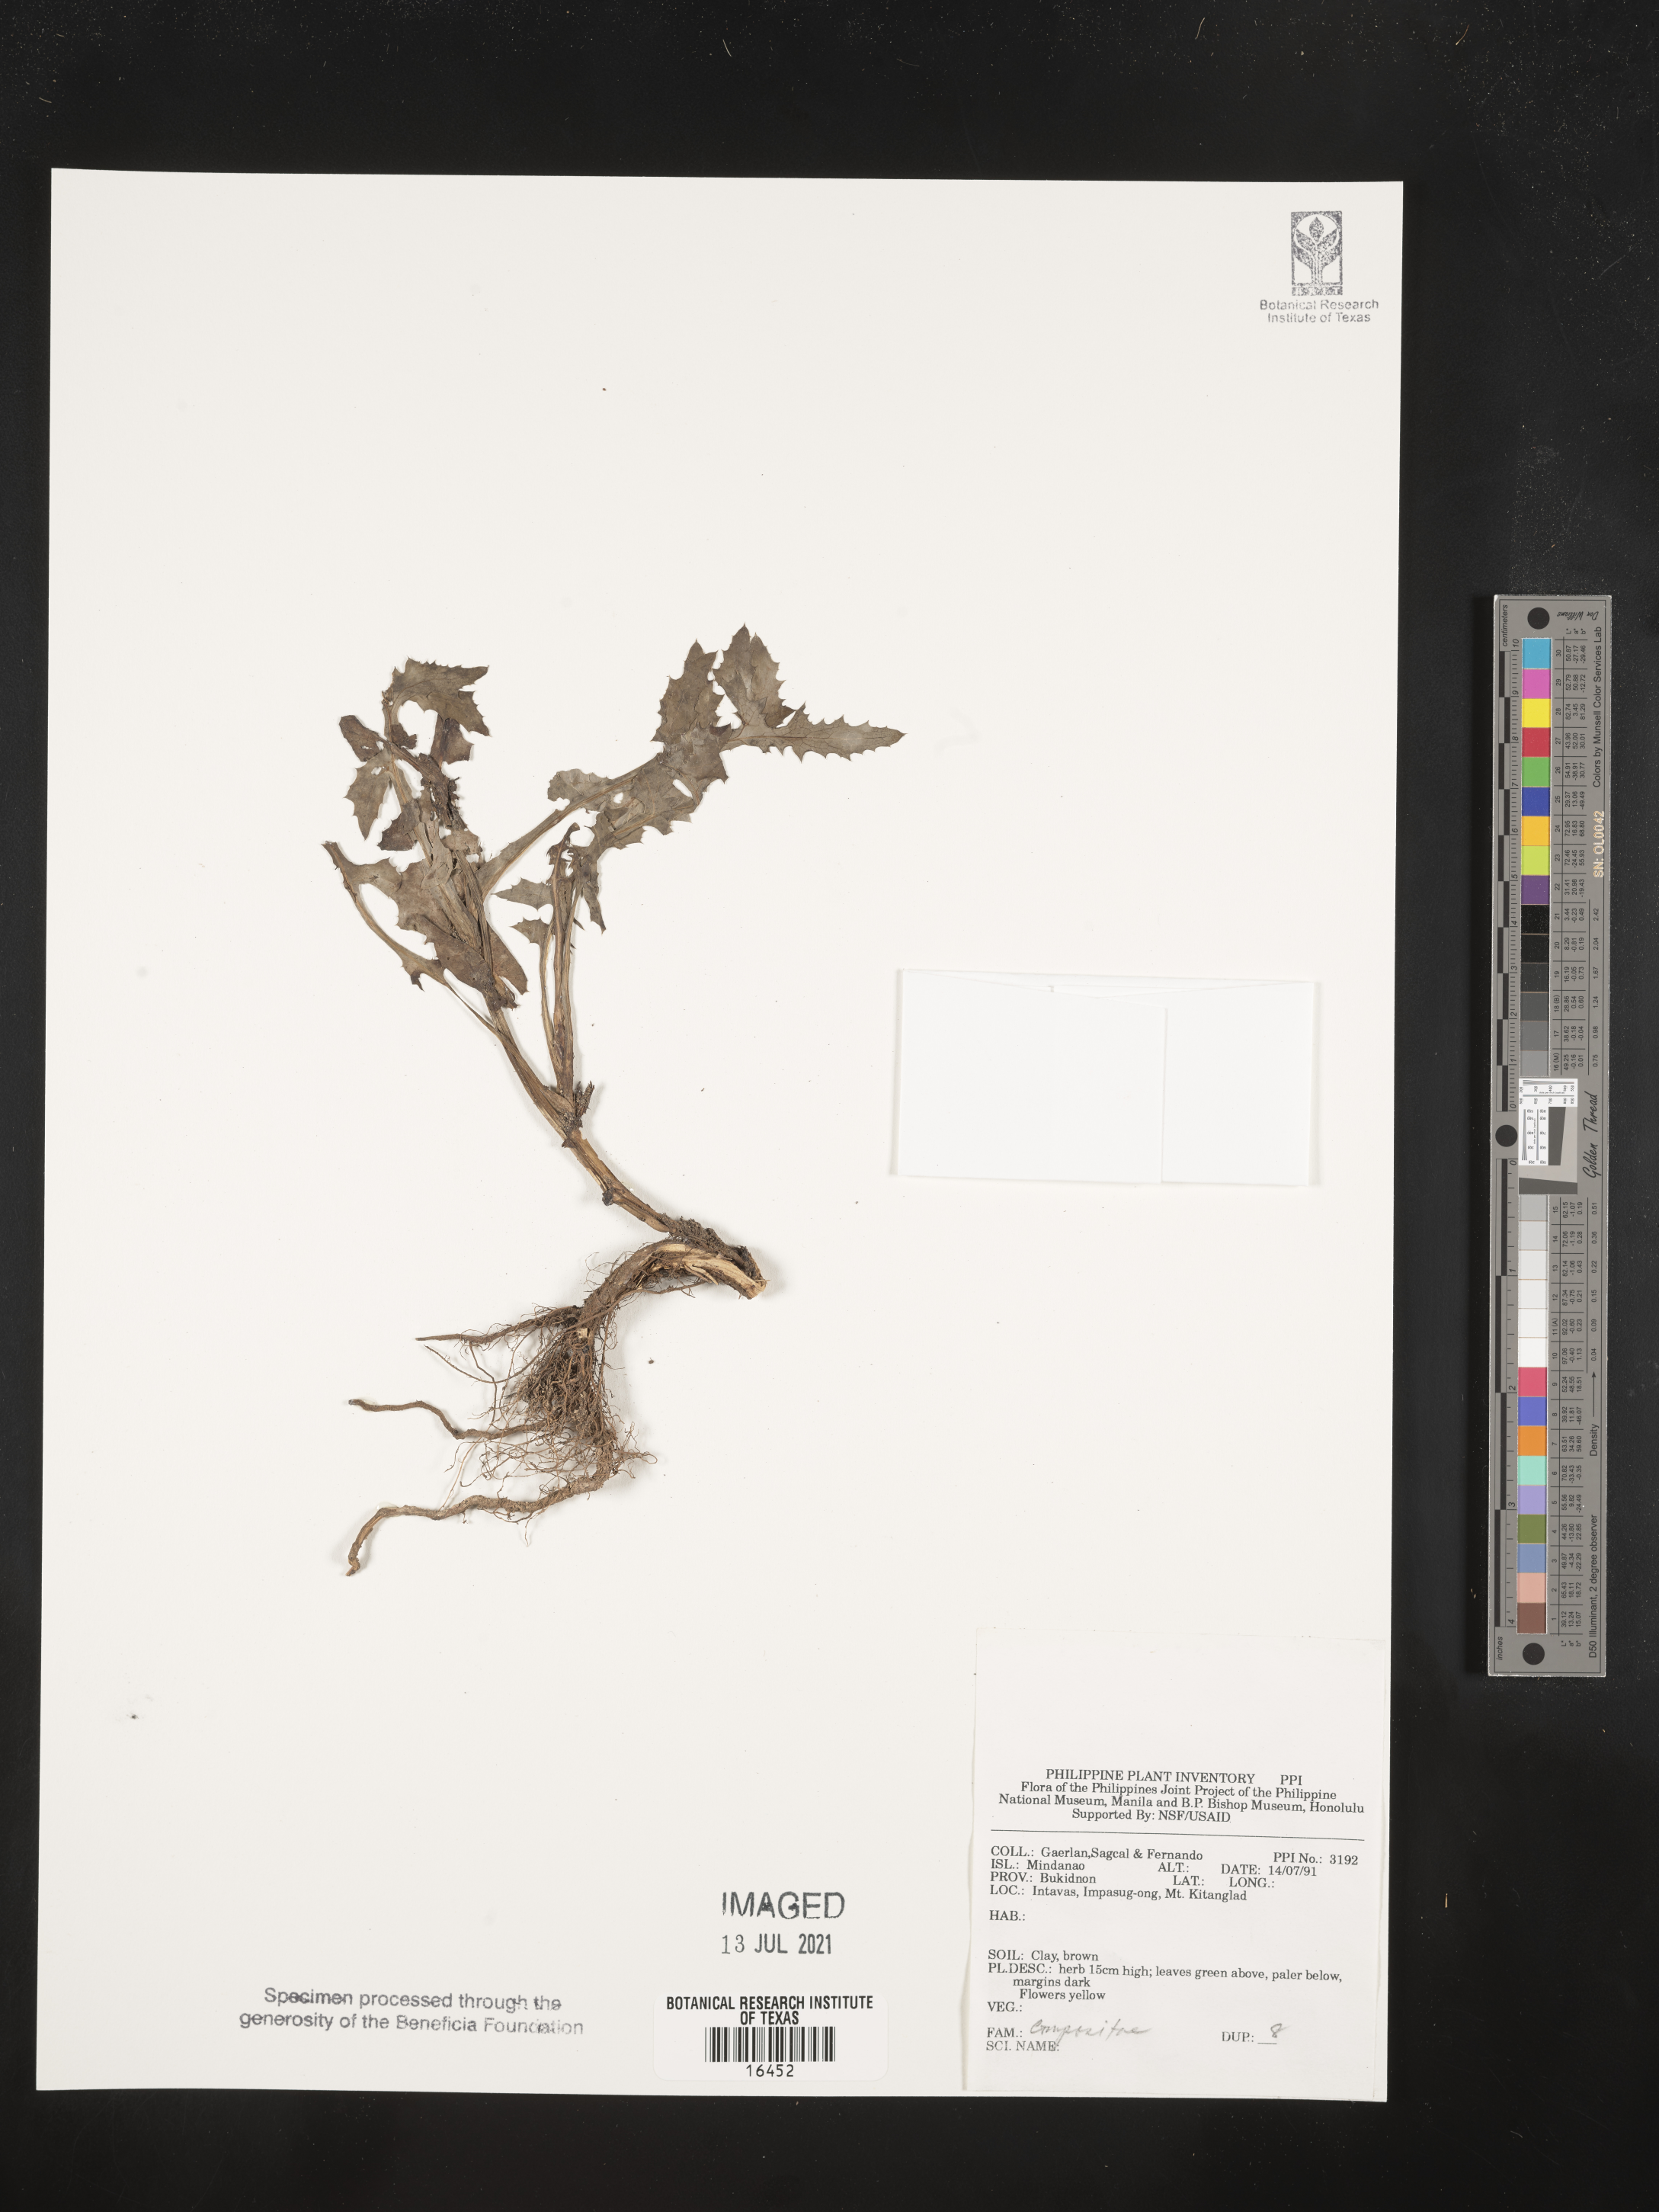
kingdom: Plantae
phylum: Tracheophyta
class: Magnoliopsida
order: Asterales
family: Asteraceae
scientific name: Asteraceae
